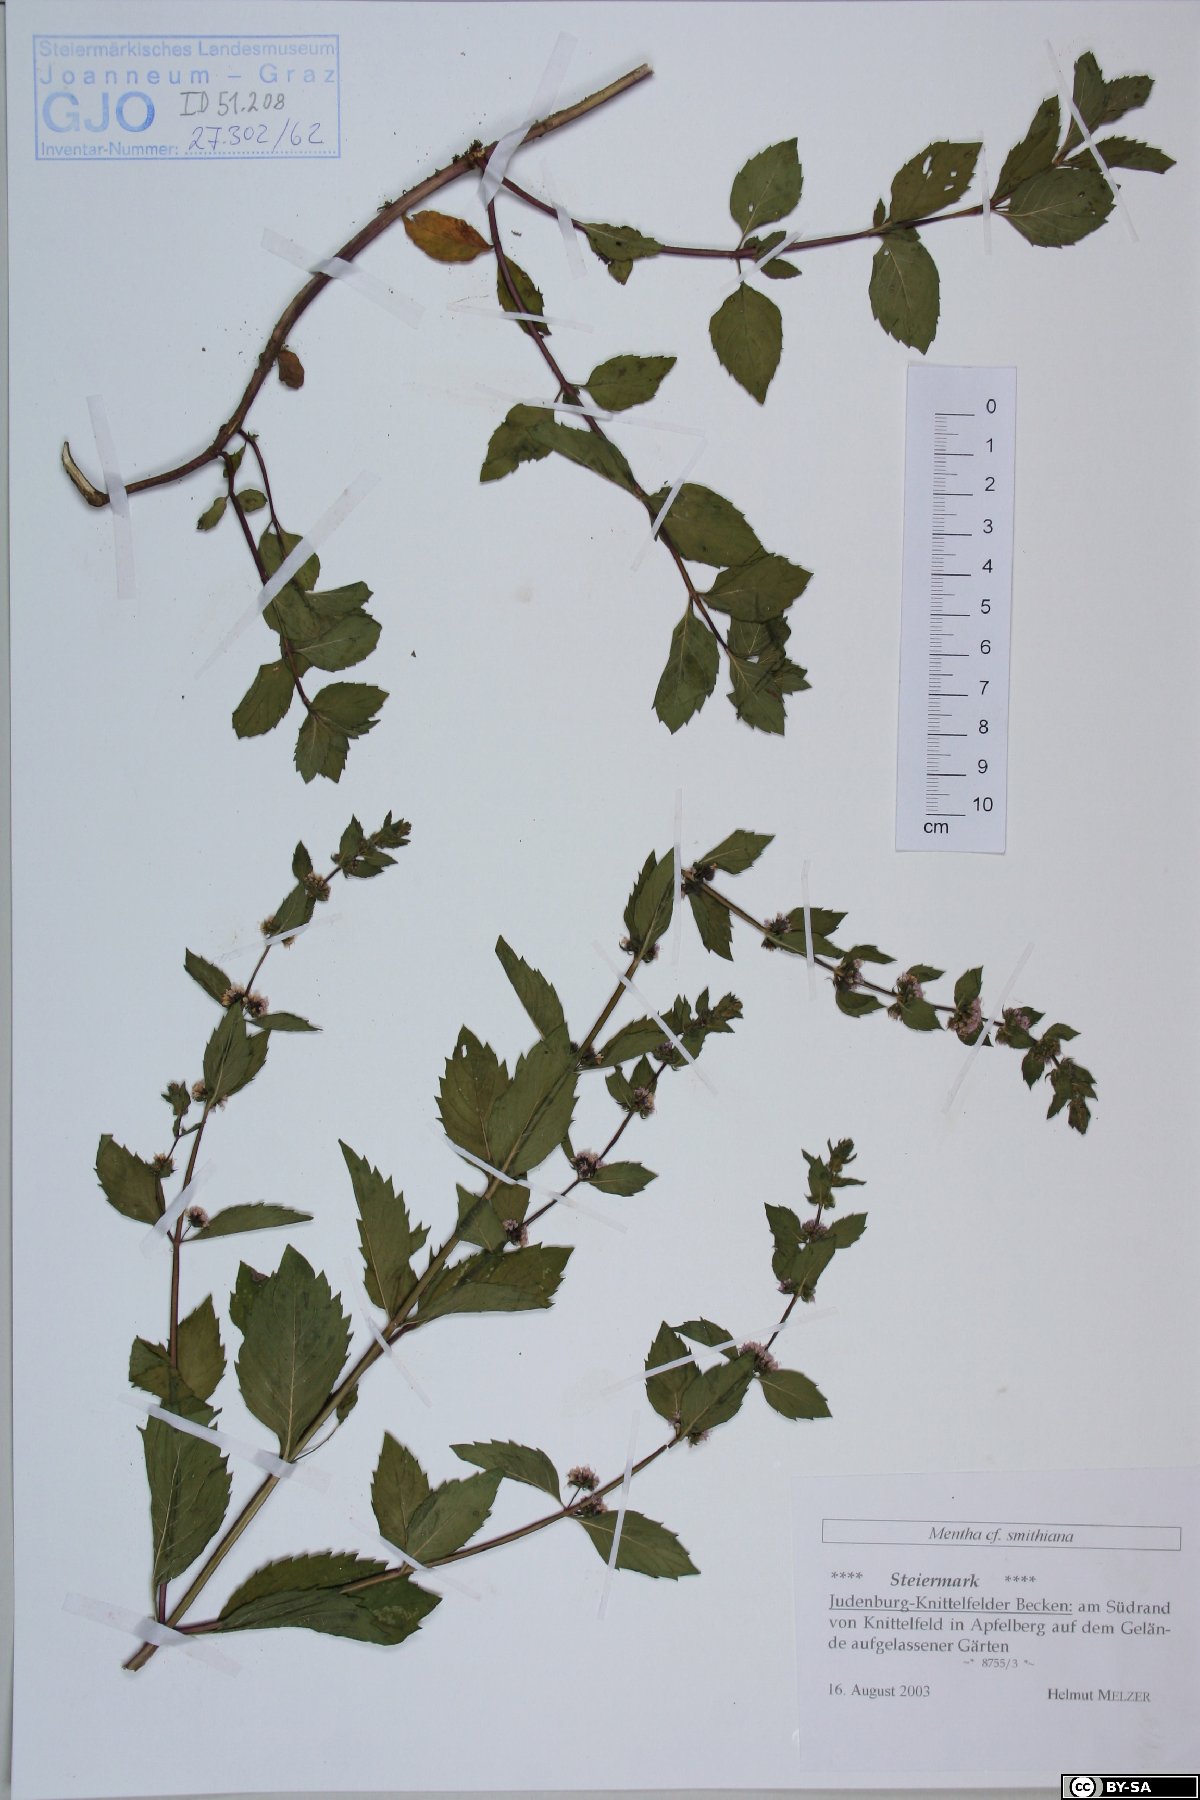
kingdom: Plantae
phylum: Tracheophyta
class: Magnoliopsida
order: Lamiales
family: Lamiaceae
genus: Mentha
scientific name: Mentha wirtgeniana
